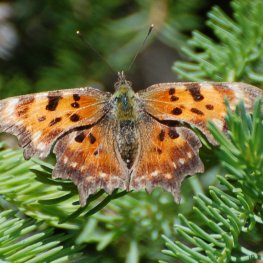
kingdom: Animalia
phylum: Arthropoda
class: Insecta
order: Lepidoptera
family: Nymphalidae
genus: Polygonia
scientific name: Polygonia faunus
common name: Green Comma
